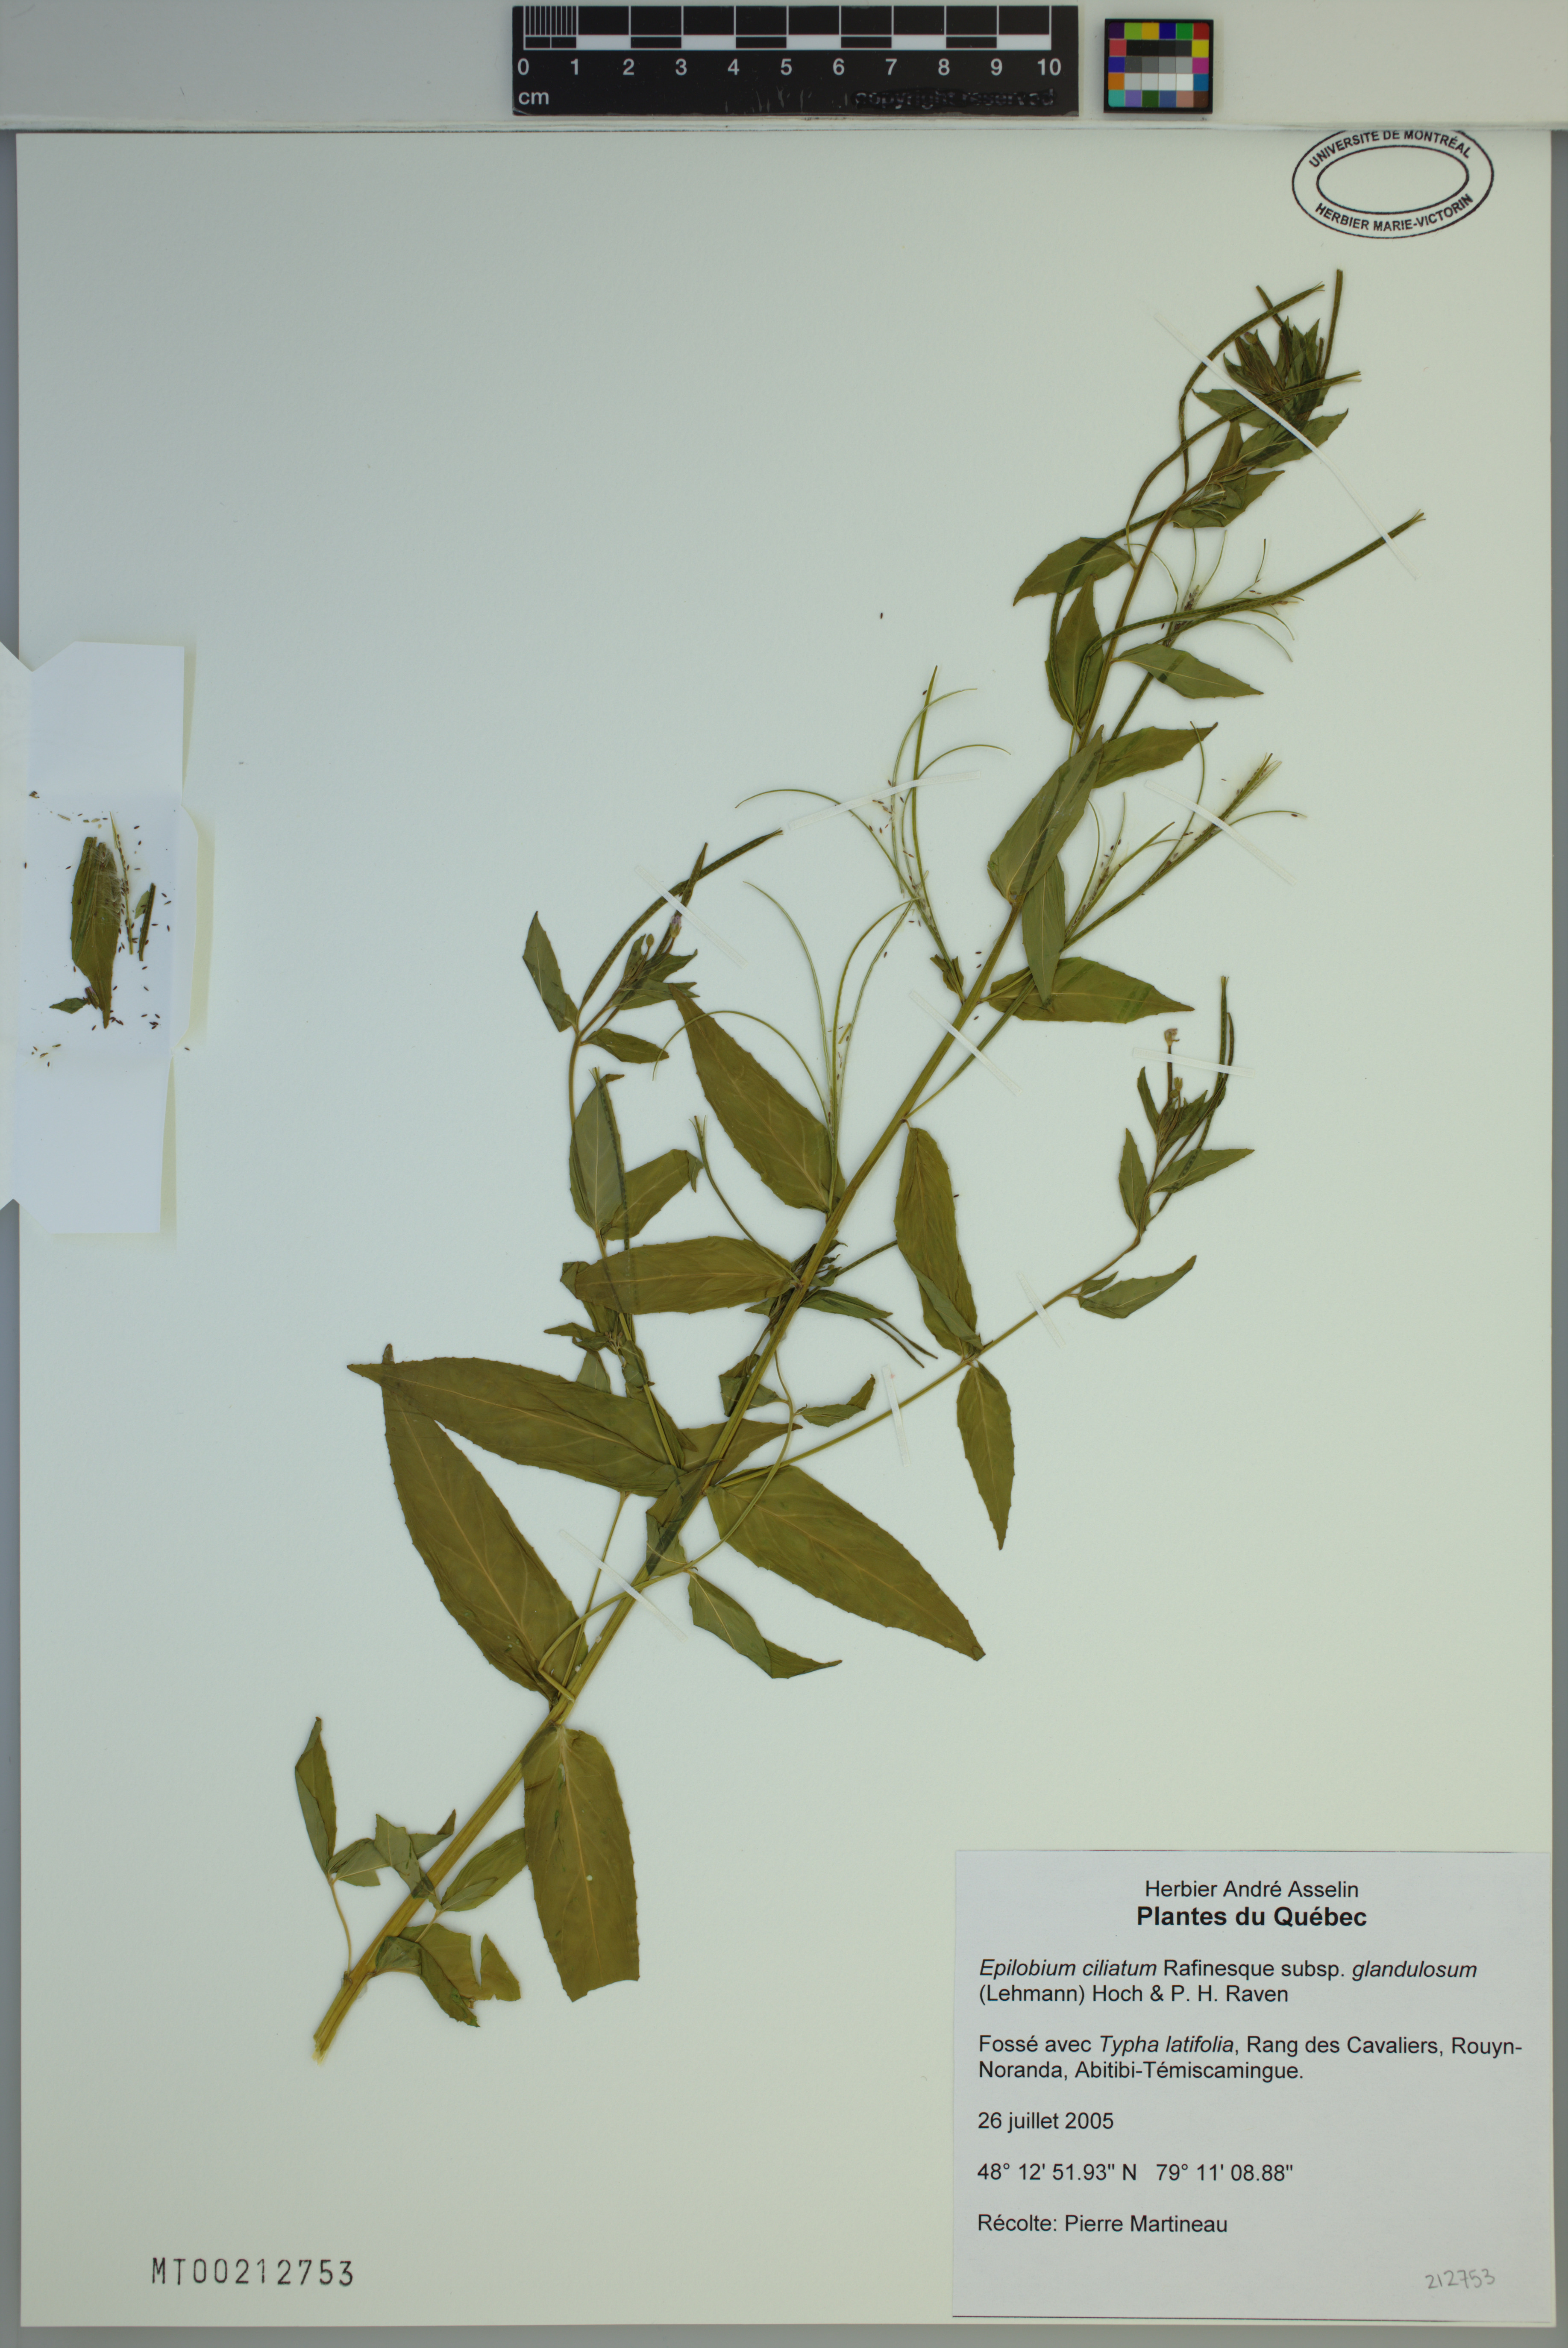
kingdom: Plantae
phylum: Tracheophyta
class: Magnoliopsida
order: Myrtales
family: Onagraceae
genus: Epilobium
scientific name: Epilobium ciliatum
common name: American willowherb
